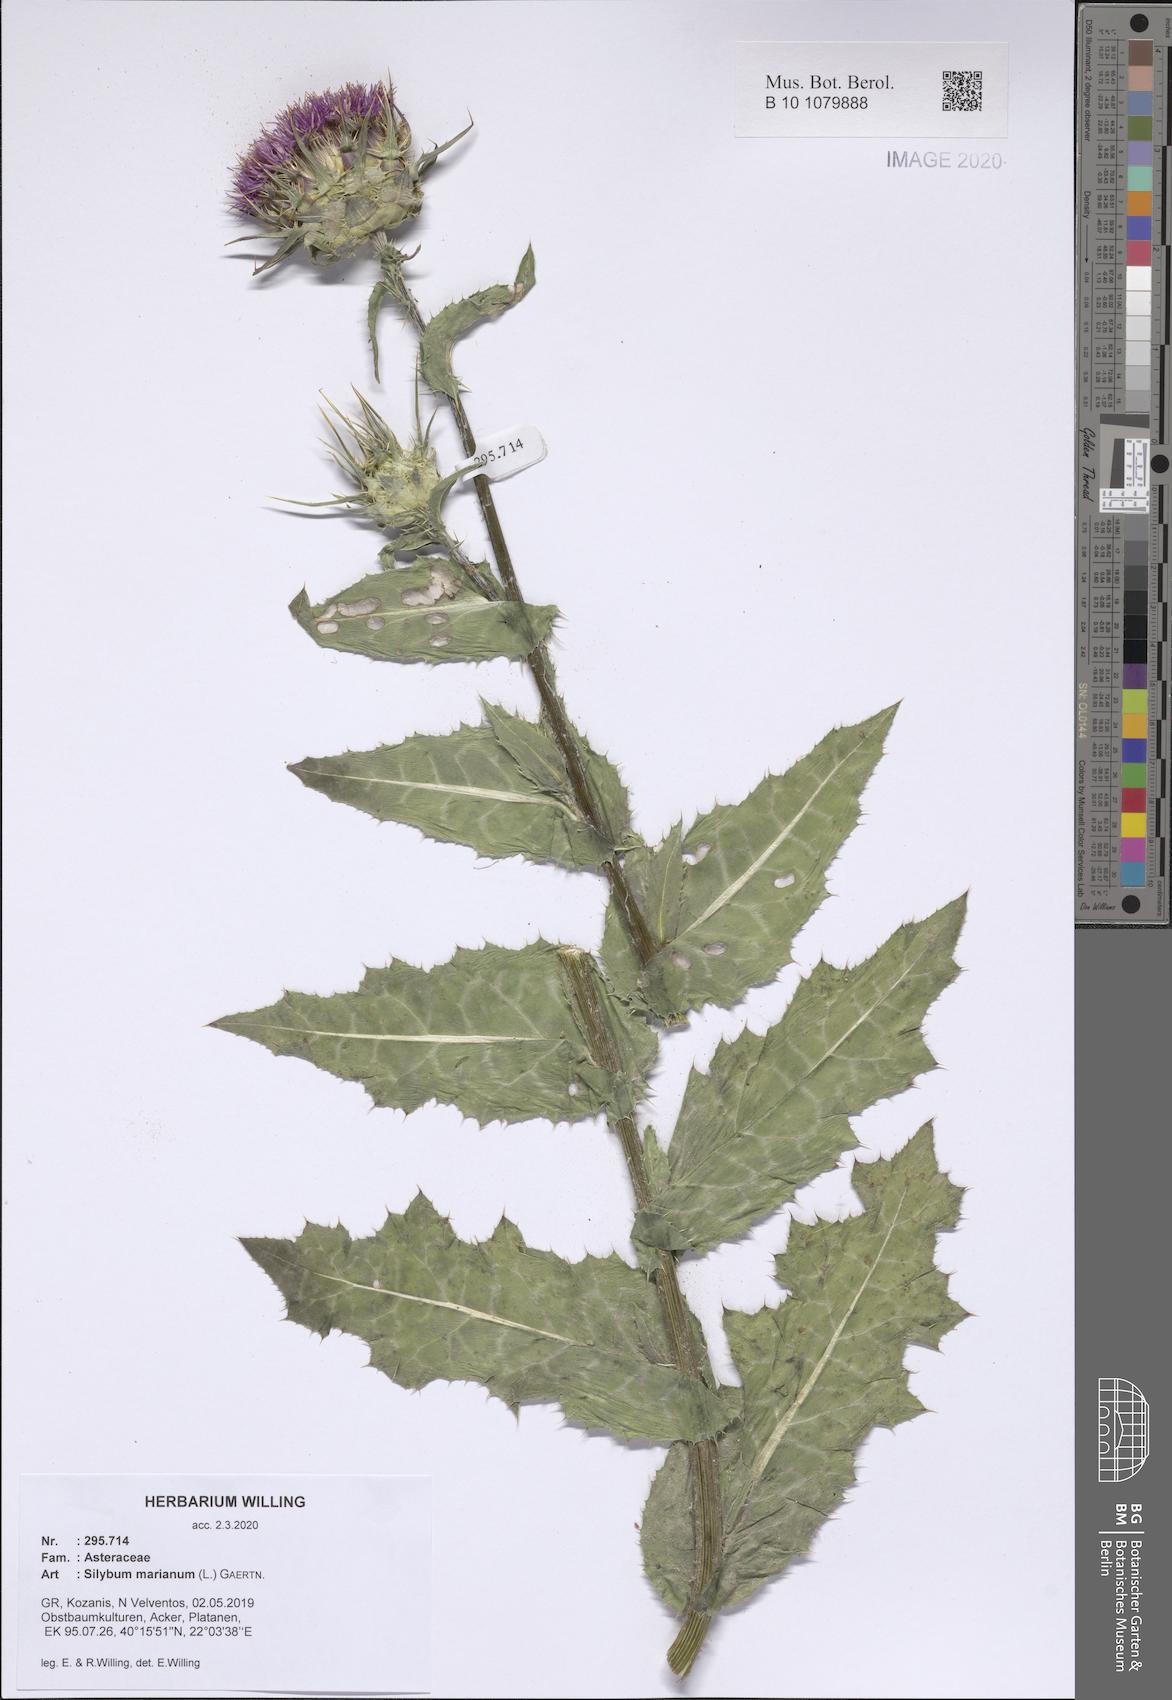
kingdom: Plantae
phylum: Tracheophyta
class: Magnoliopsida
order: Asterales
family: Asteraceae
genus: Silybum
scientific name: Silybum marianum
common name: Milk thistle
